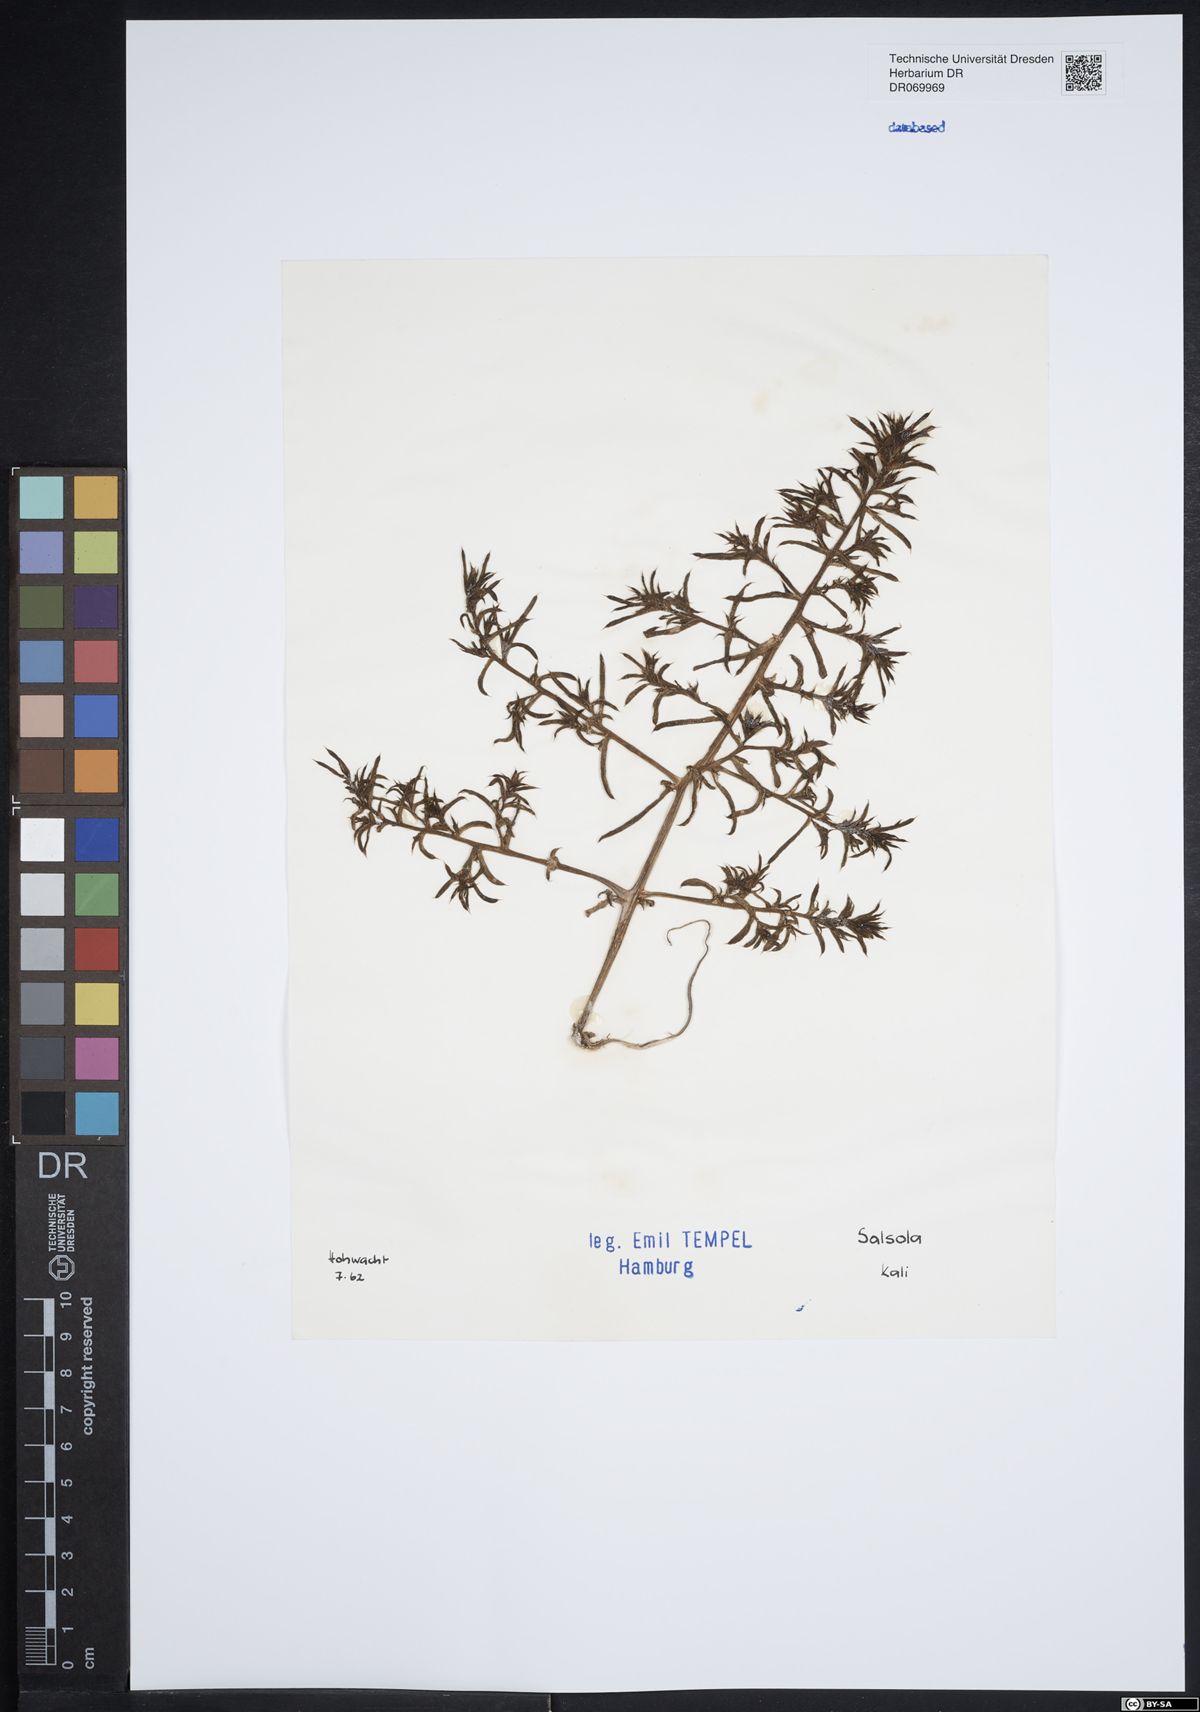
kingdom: Plantae
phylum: Tracheophyta
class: Magnoliopsida
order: Caryophyllales
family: Amaranthaceae
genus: Salsola
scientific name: Salsola kali
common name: Saltwort
